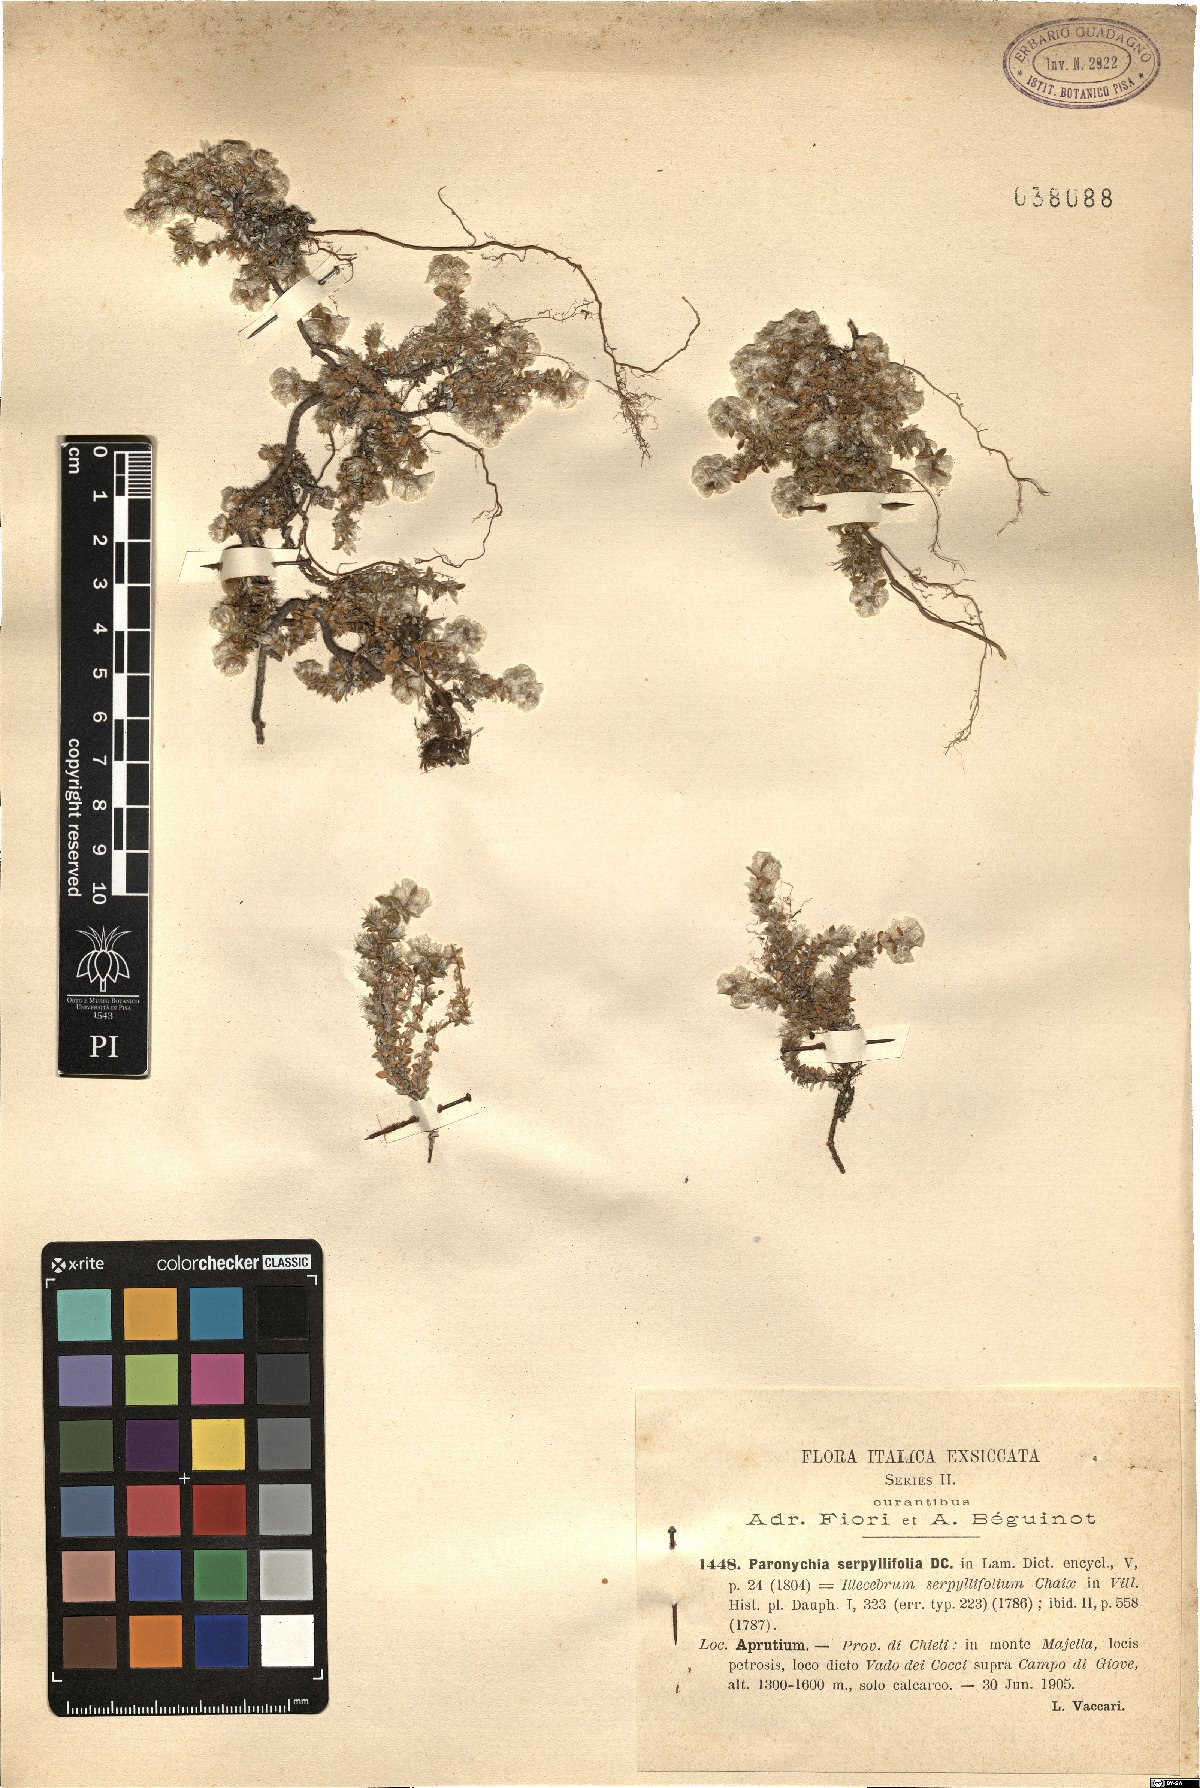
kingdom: Plantae
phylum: Tracheophyta
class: Magnoliopsida
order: Caryophyllales
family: Caryophyllaceae
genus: Paronychia
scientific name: Paronychia kapela
